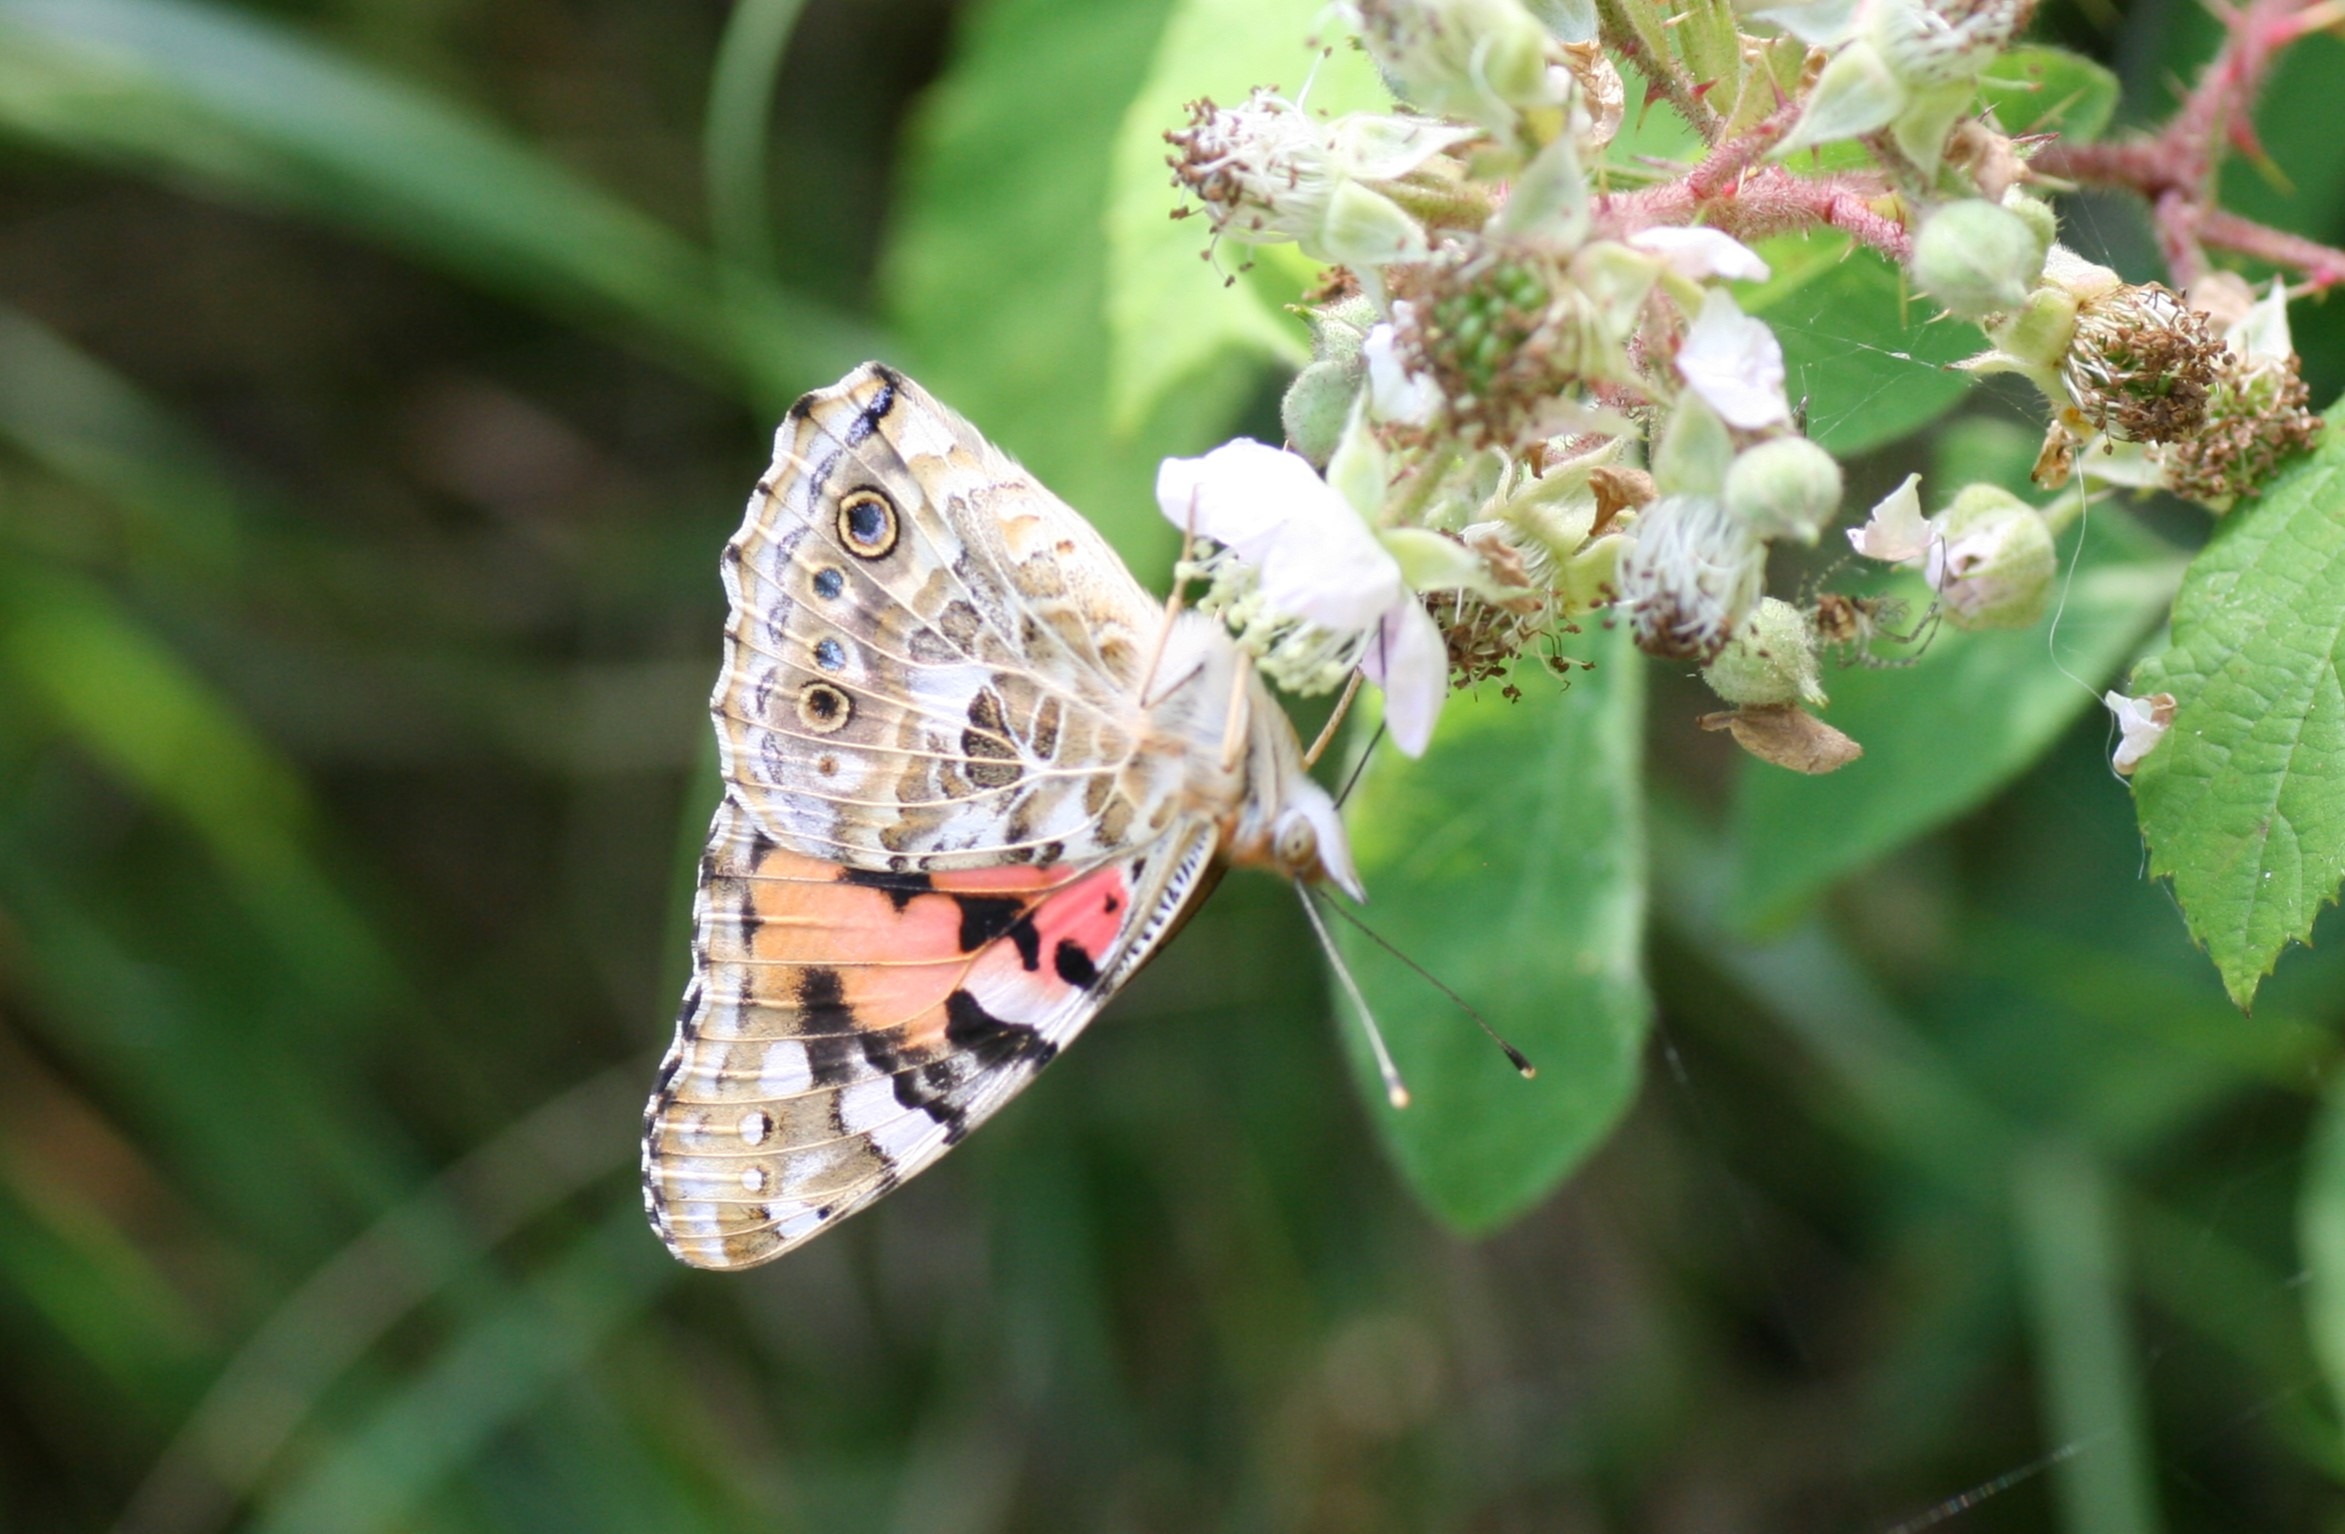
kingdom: Animalia
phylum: Arthropoda
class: Insecta
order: Lepidoptera
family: Nymphalidae
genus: Vanessa
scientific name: Vanessa cardui
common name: Tidselsommerfugl
